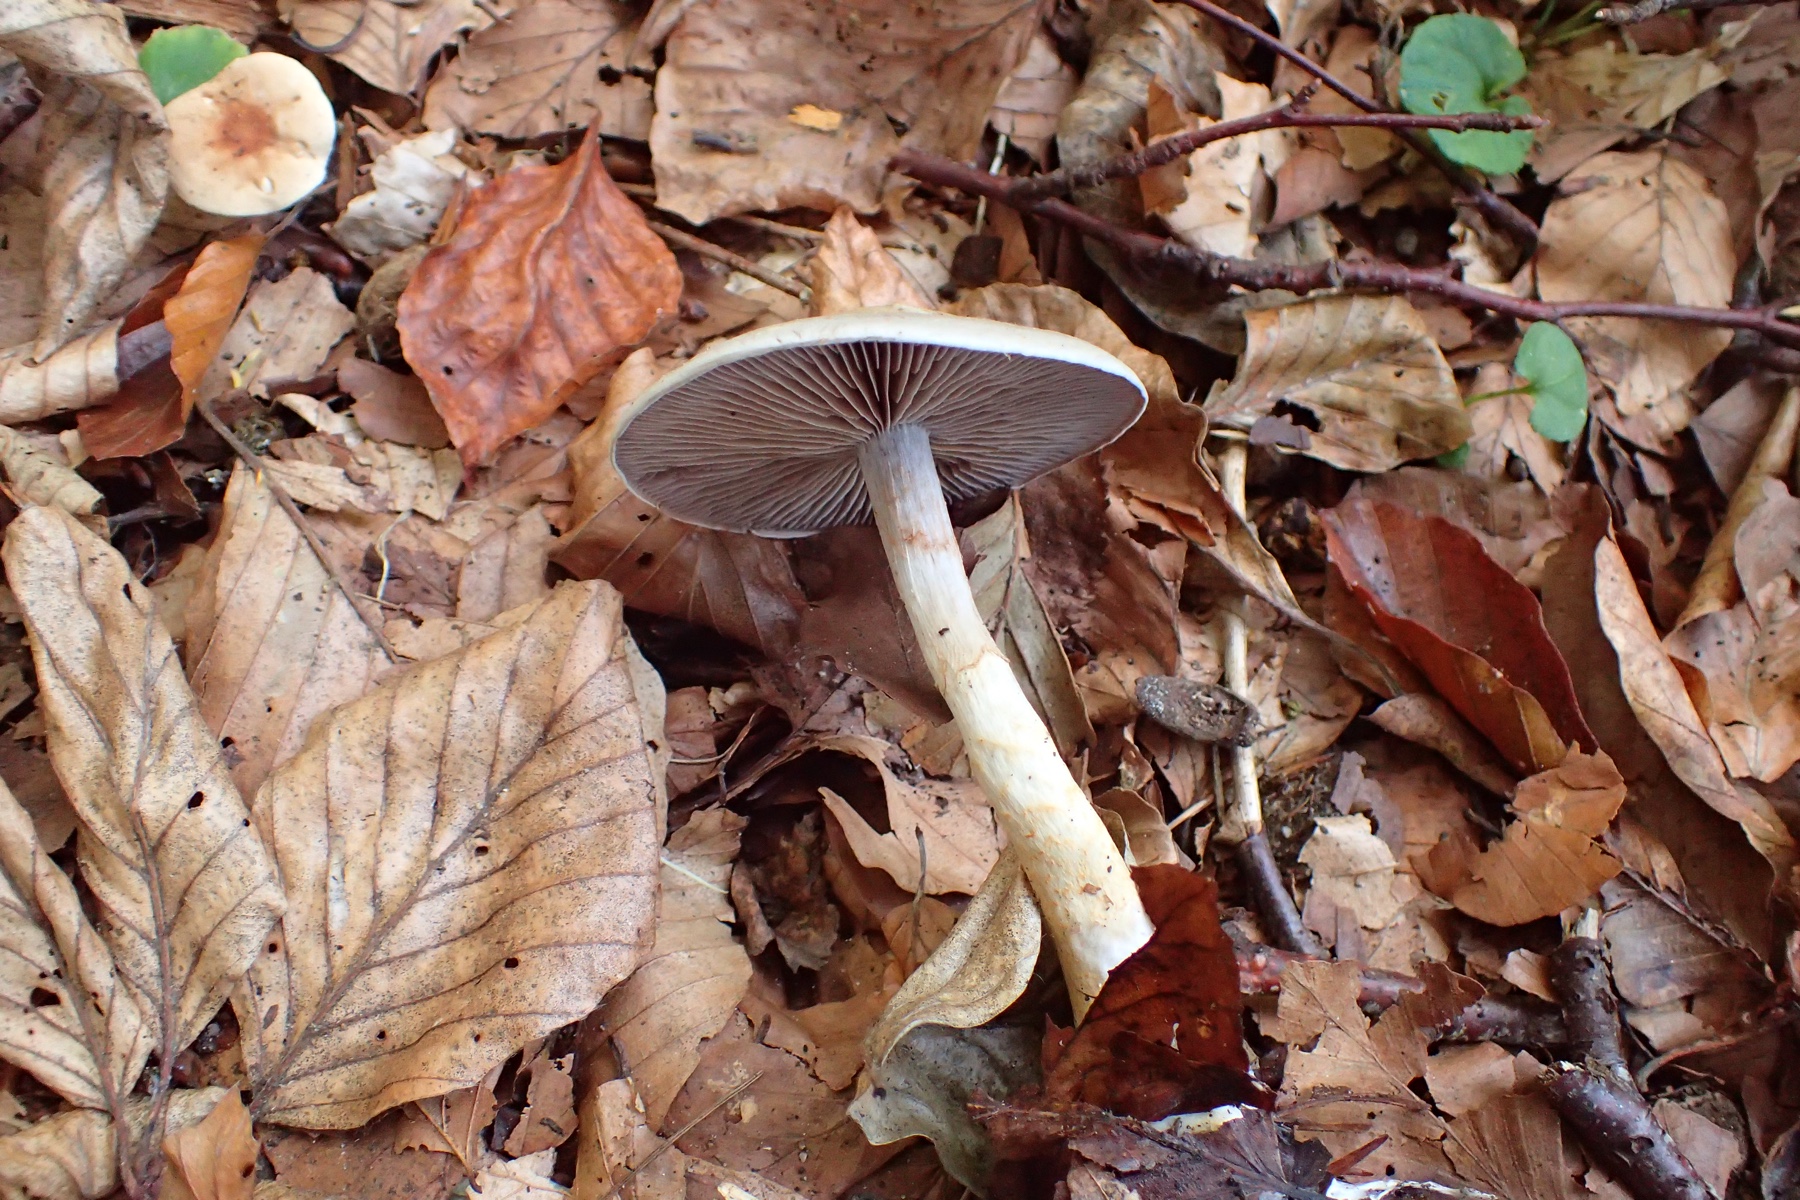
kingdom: Fungi
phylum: Basidiomycota
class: Agaricomycetes
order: Agaricales
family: Cortinariaceae
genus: Cortinarius
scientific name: Cortinarius
